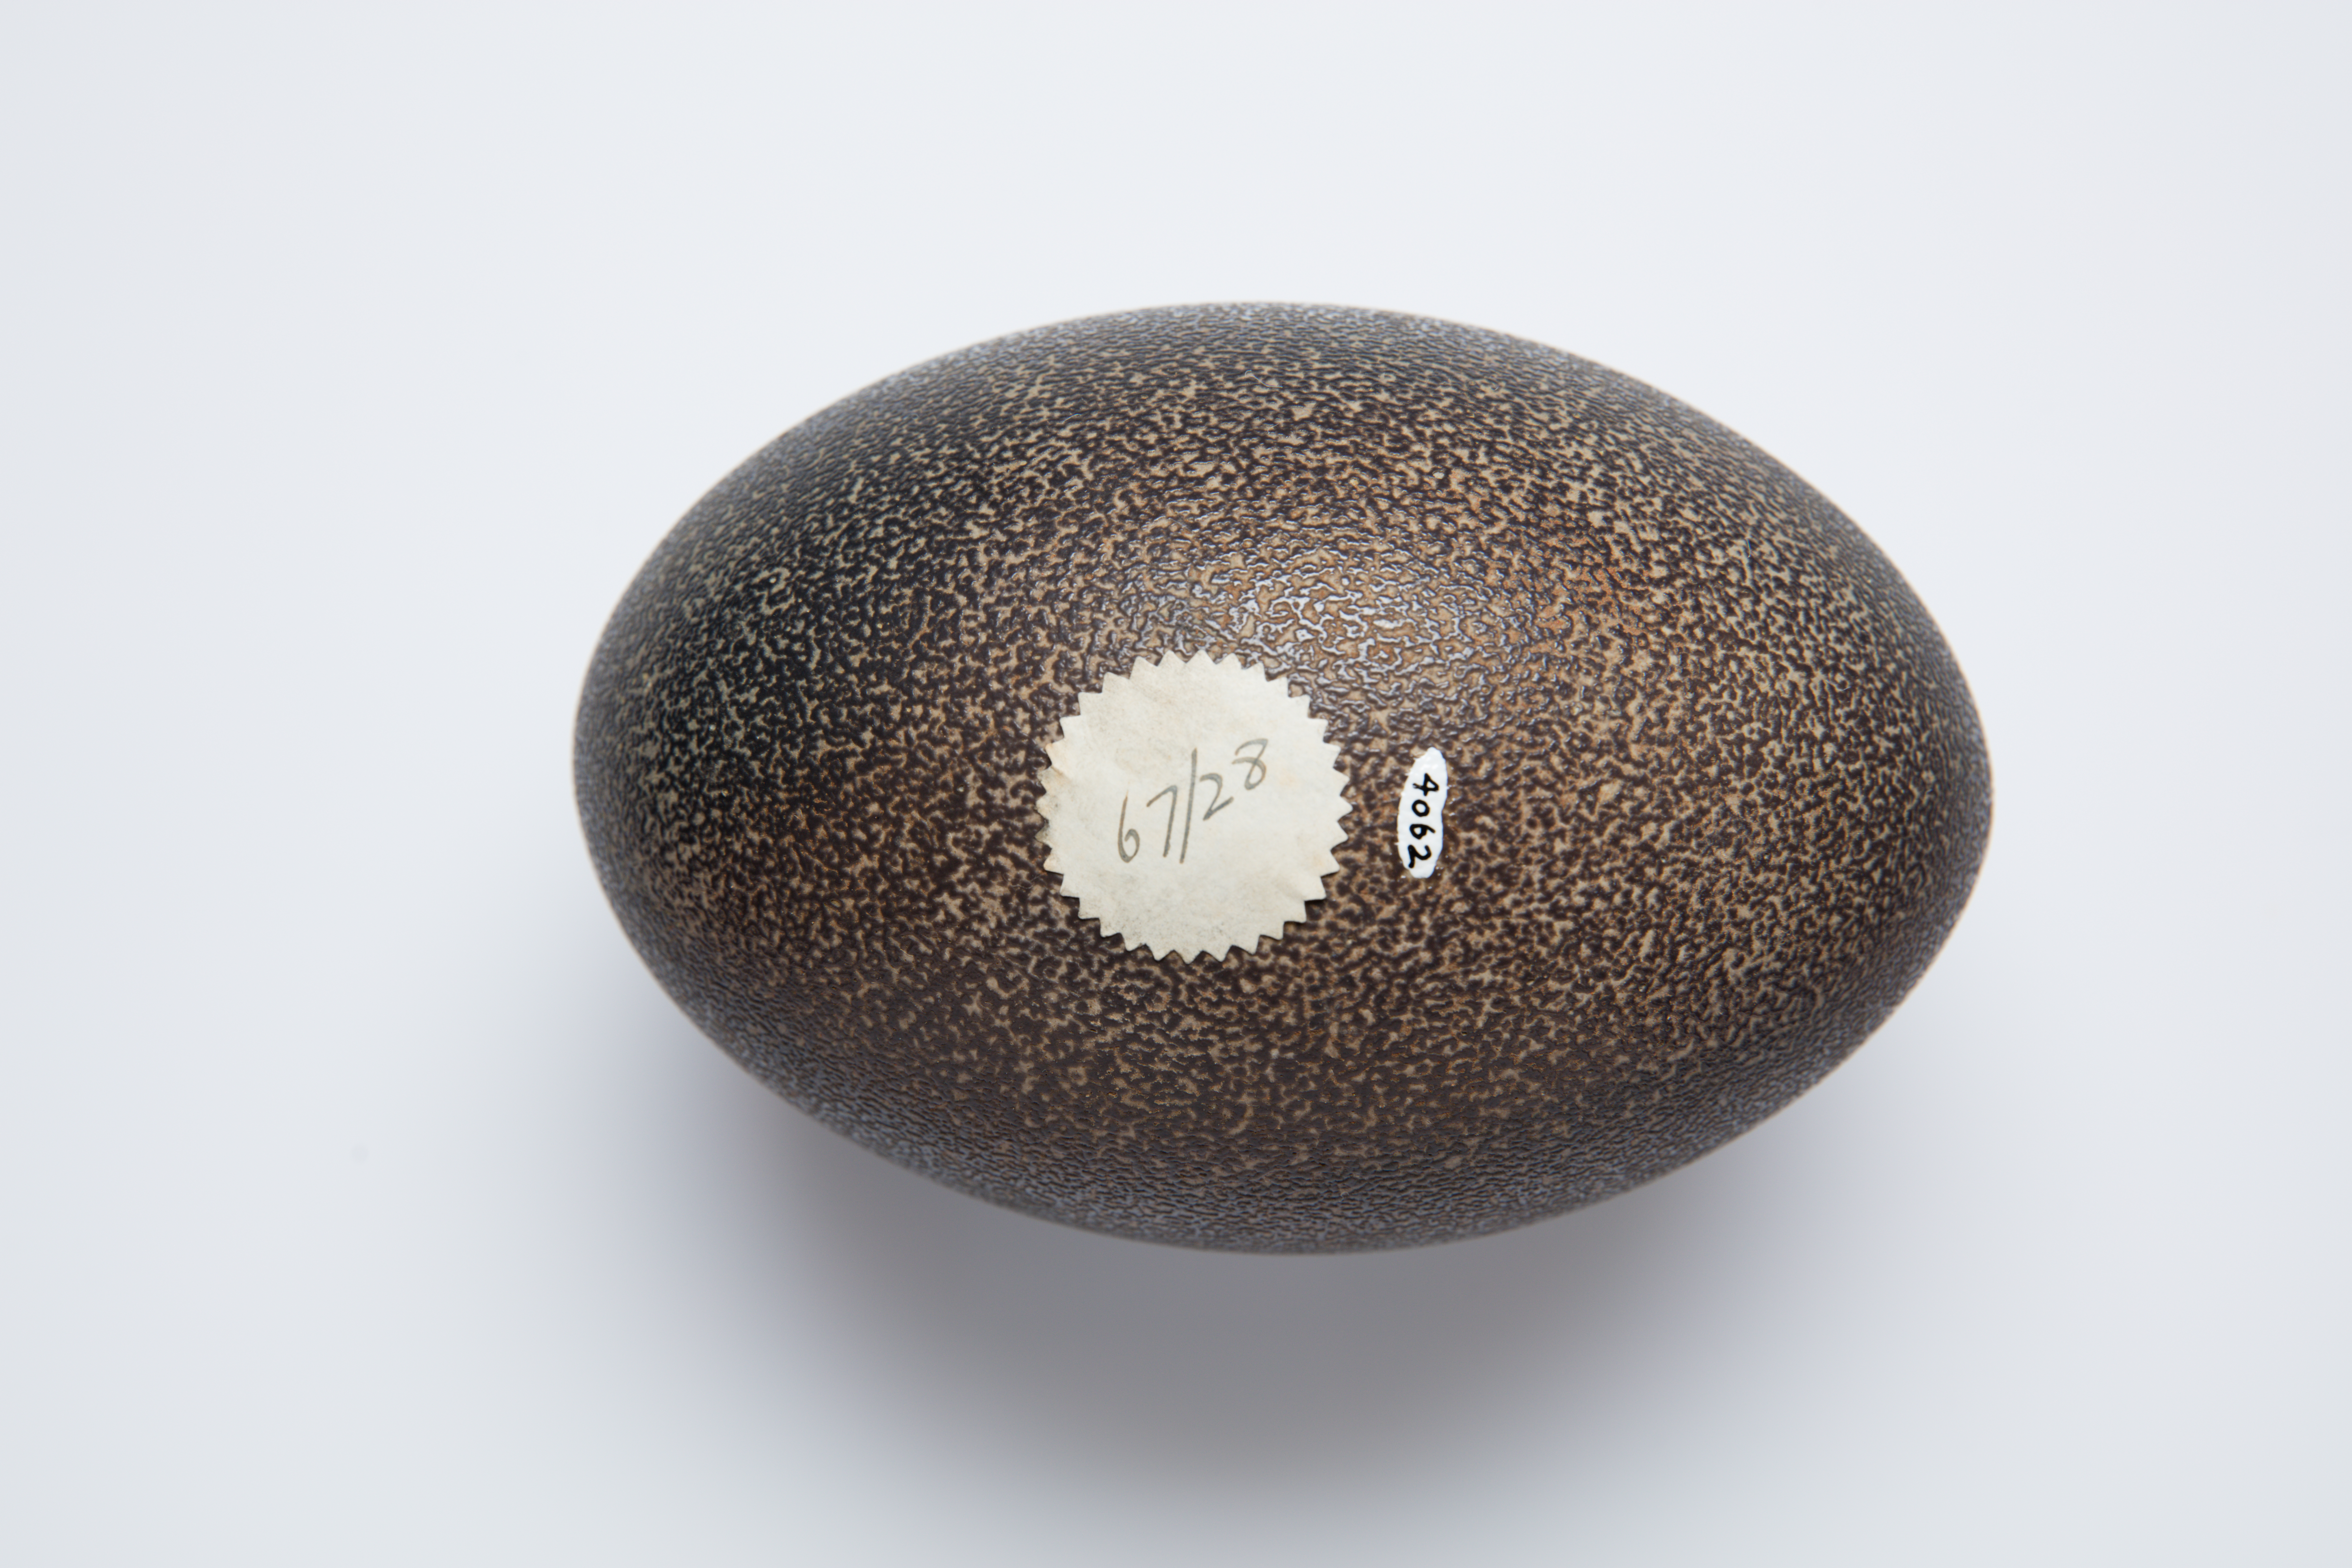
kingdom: Animalia
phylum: Chordata
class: Aves
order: Casuariiformes
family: Dromaiidae
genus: Dromaius
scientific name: Dromaius novaehollandiae
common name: Emu
